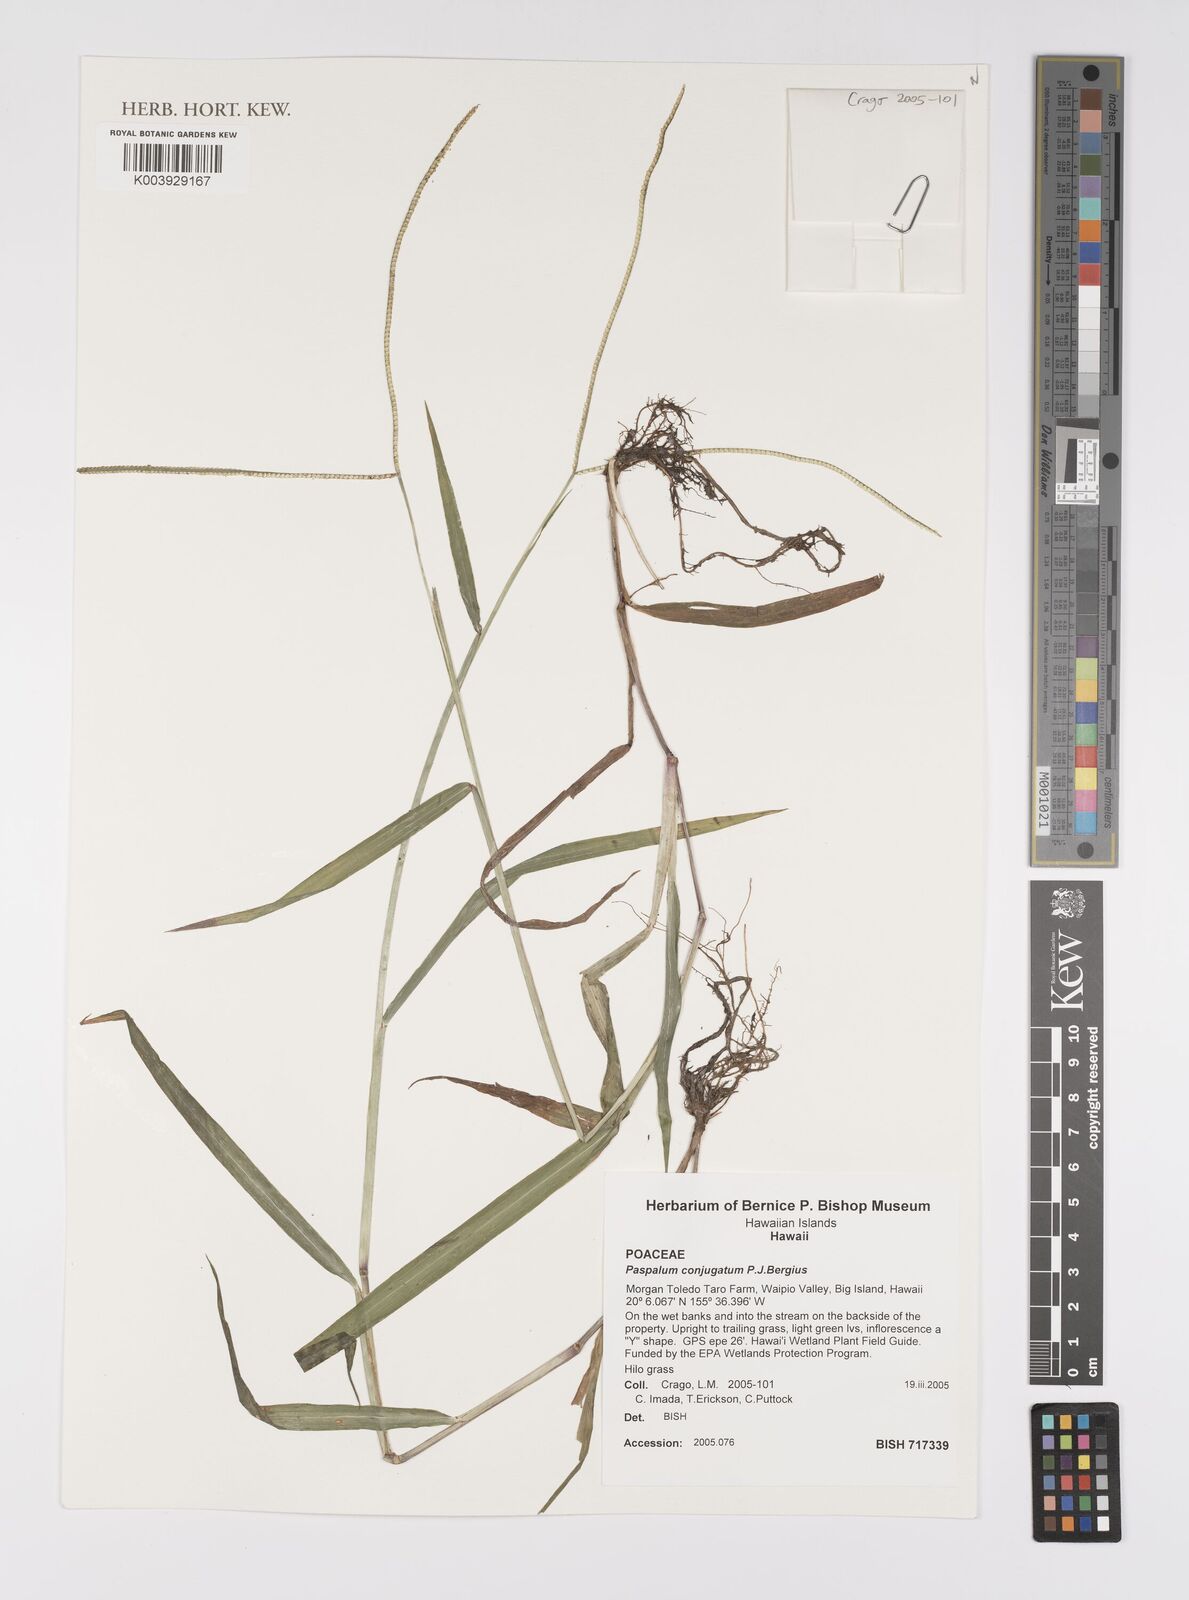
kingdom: Plantae
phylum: Tracheophyta
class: Liliopsida
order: Poales
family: Poaceae
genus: Paspalum
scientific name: Paspalum conjugatum
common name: Hilograss
